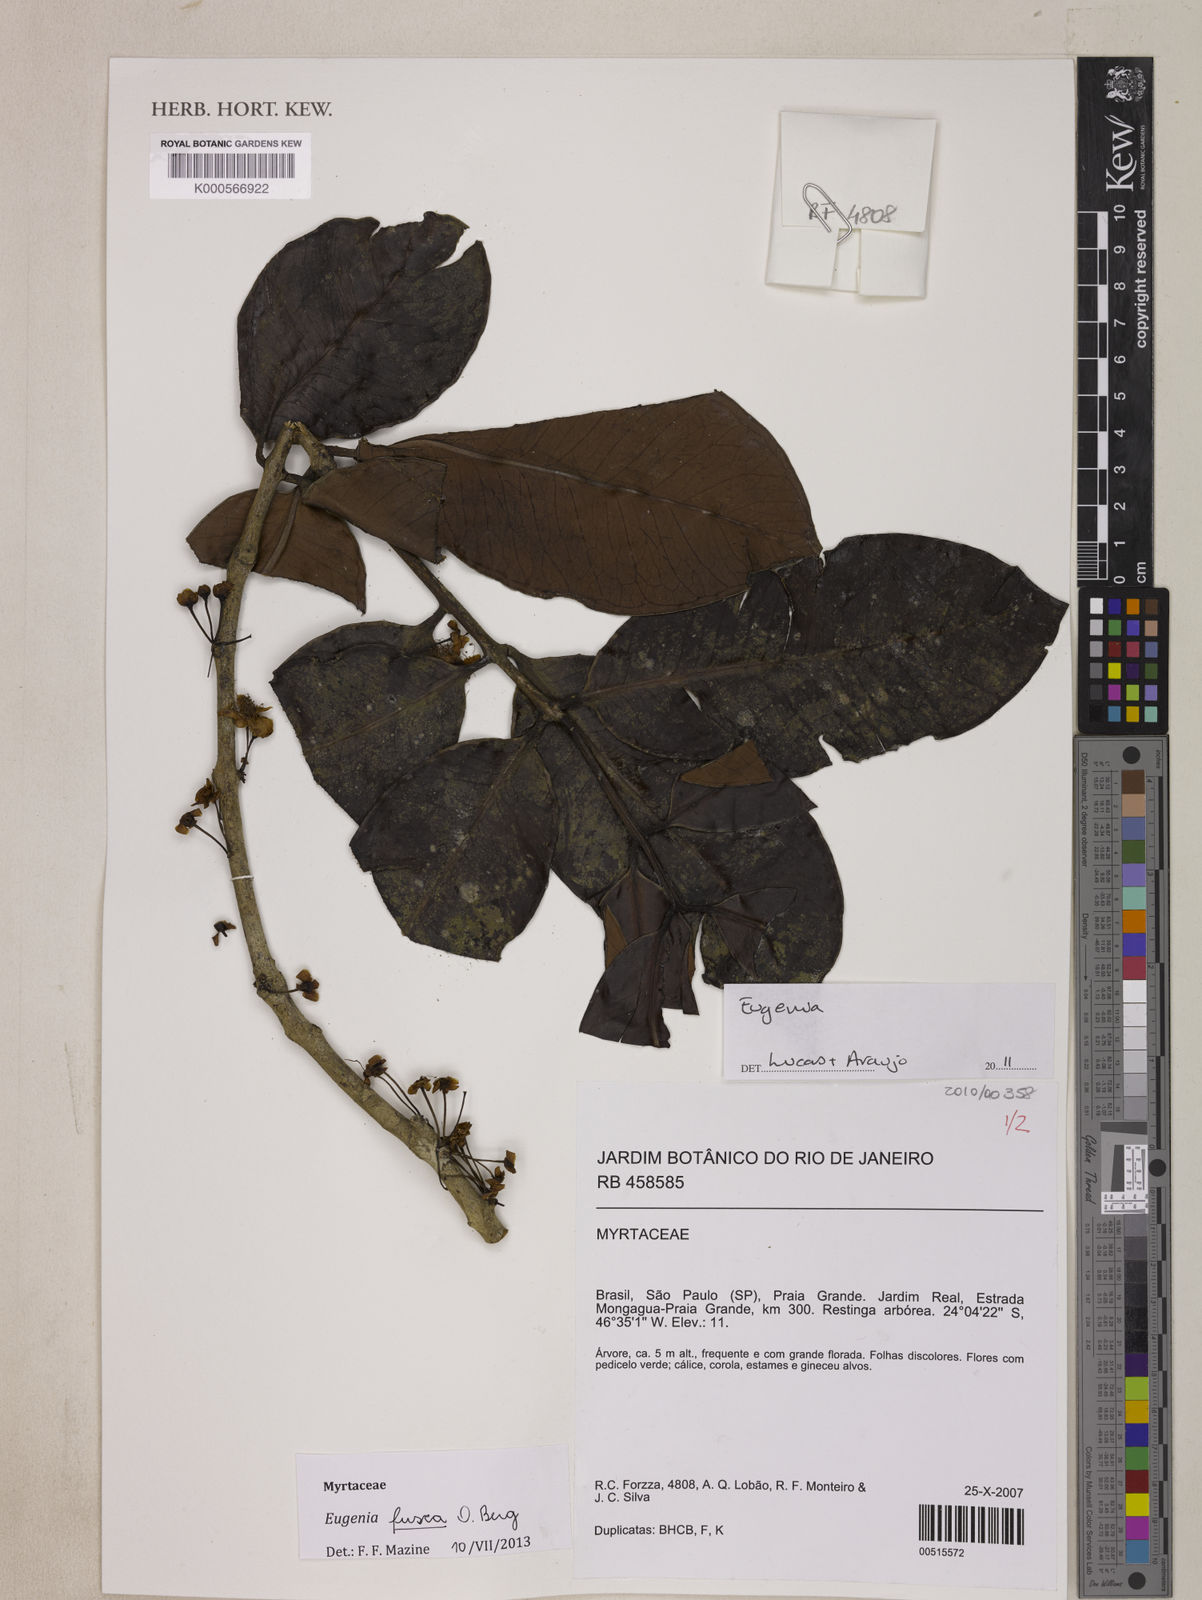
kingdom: Plantae
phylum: Tracheophyta
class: Liliopsida
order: Poales
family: Poaceae
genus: Ichnanthus
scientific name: Ichnanthus nemoralis
